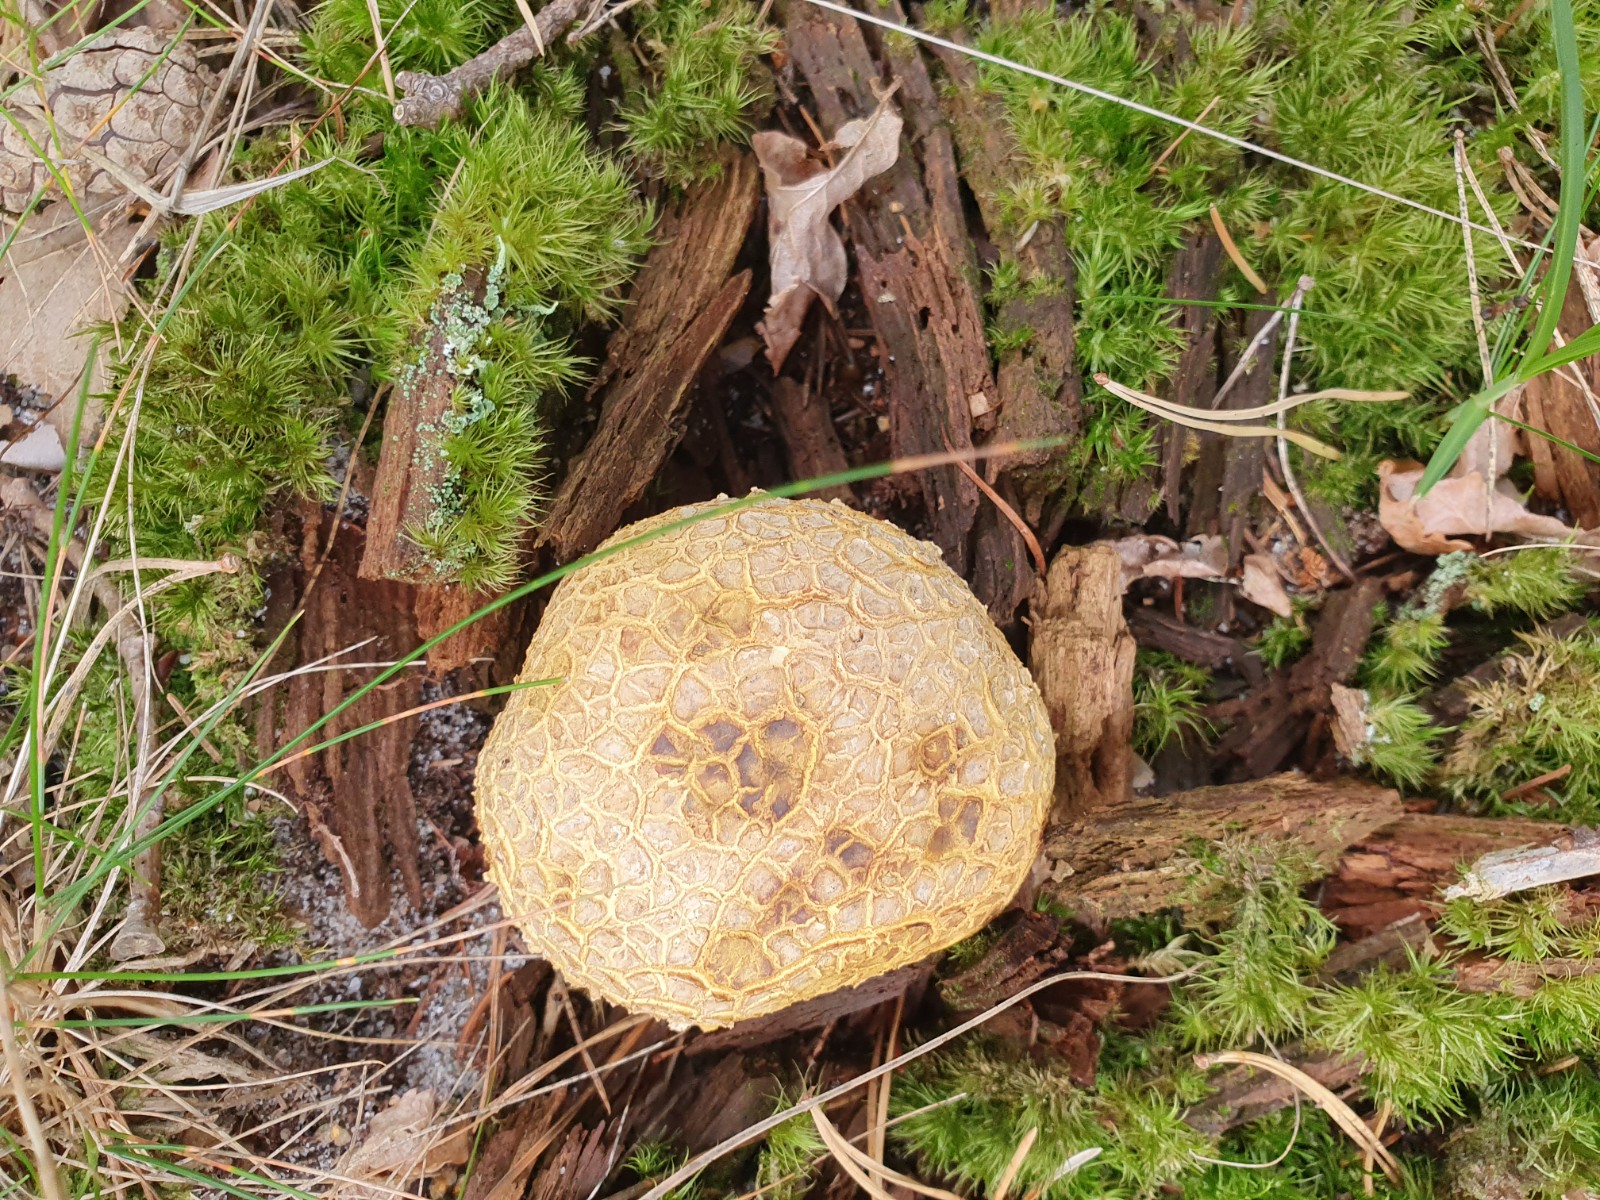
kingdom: Fungi
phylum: Basidiomycota
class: Agaricomycetes
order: Boletales
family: Sclerodermataceae
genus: Scleroderma
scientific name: Scleroderma citrinum
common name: almindelig bruskbold
